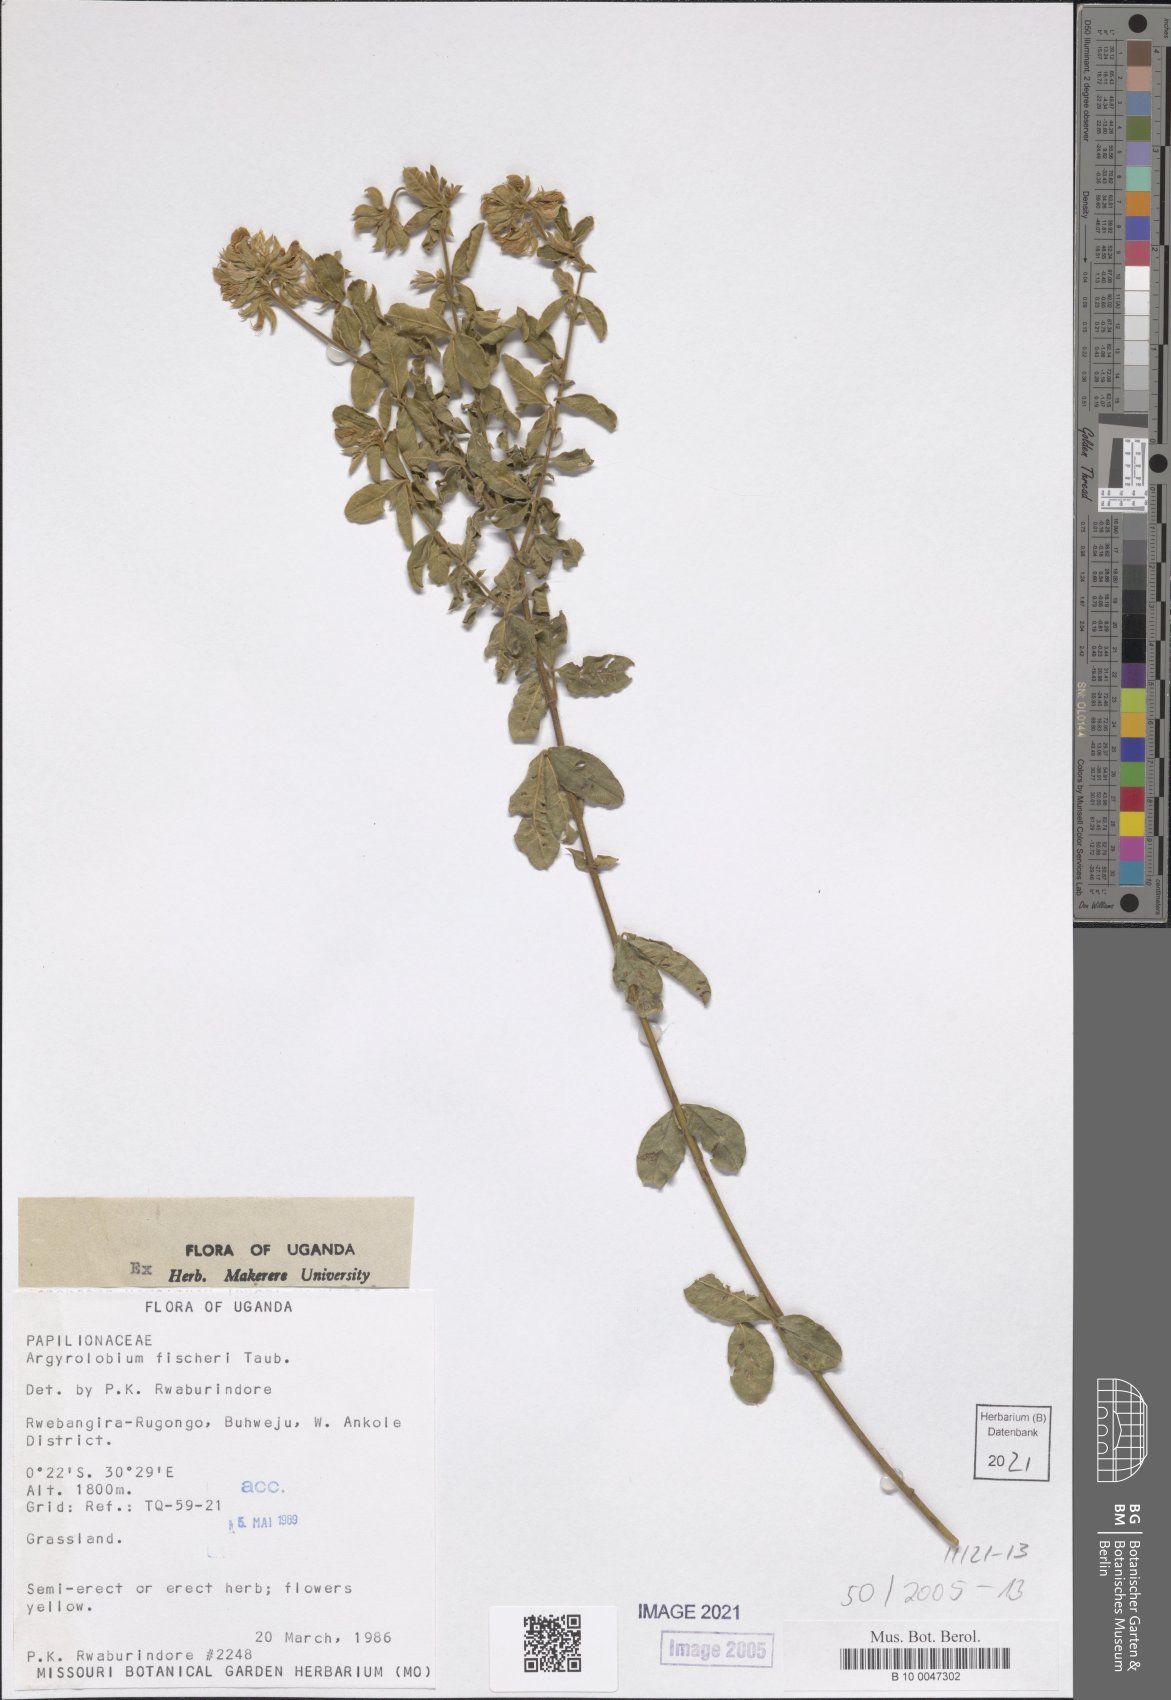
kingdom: Plantae
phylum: Tracheophyta
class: Magnoliopsida
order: Fabales
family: Fabaceae
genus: Argyrolobium
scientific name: Argyrolobium fischeri
